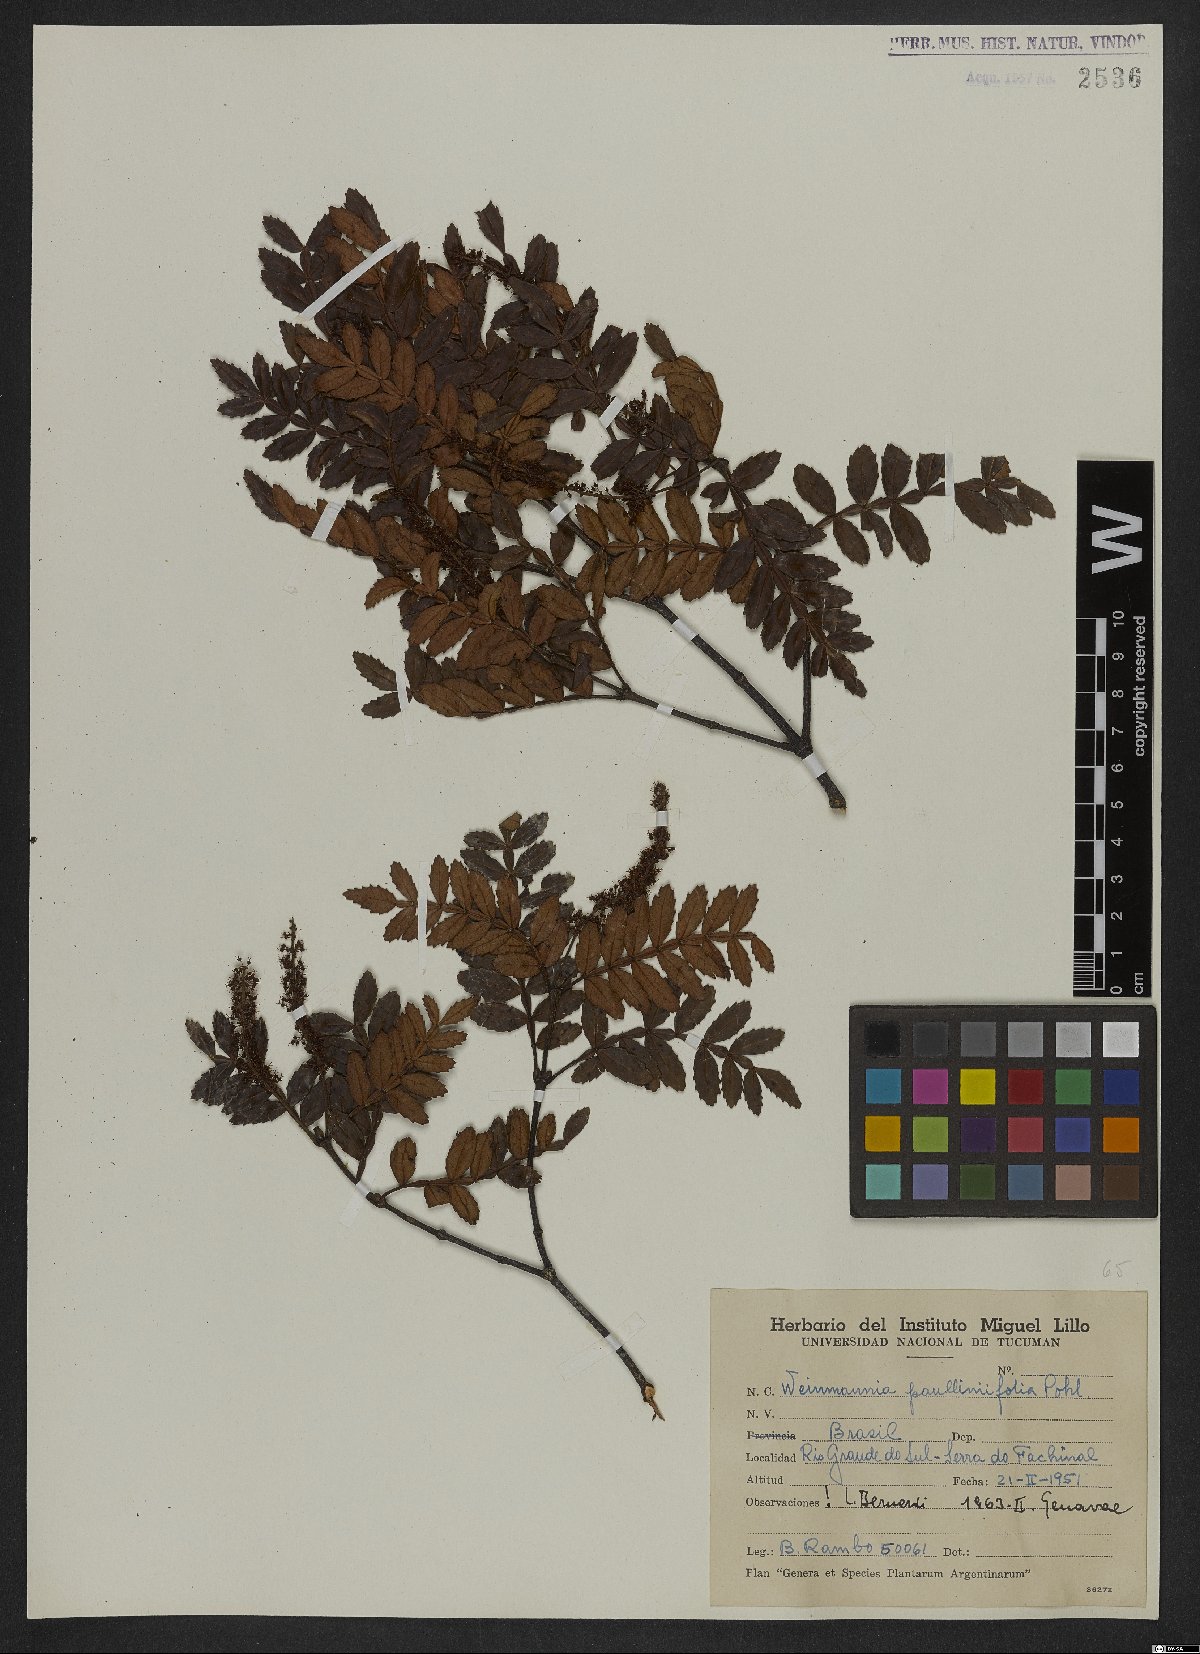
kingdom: Plantae
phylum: Tracheophyta
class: Magnoliopsida
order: Oxalidales
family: Cunoniaceae
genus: Weinmannia
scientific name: Weinmannia paullinifolia
